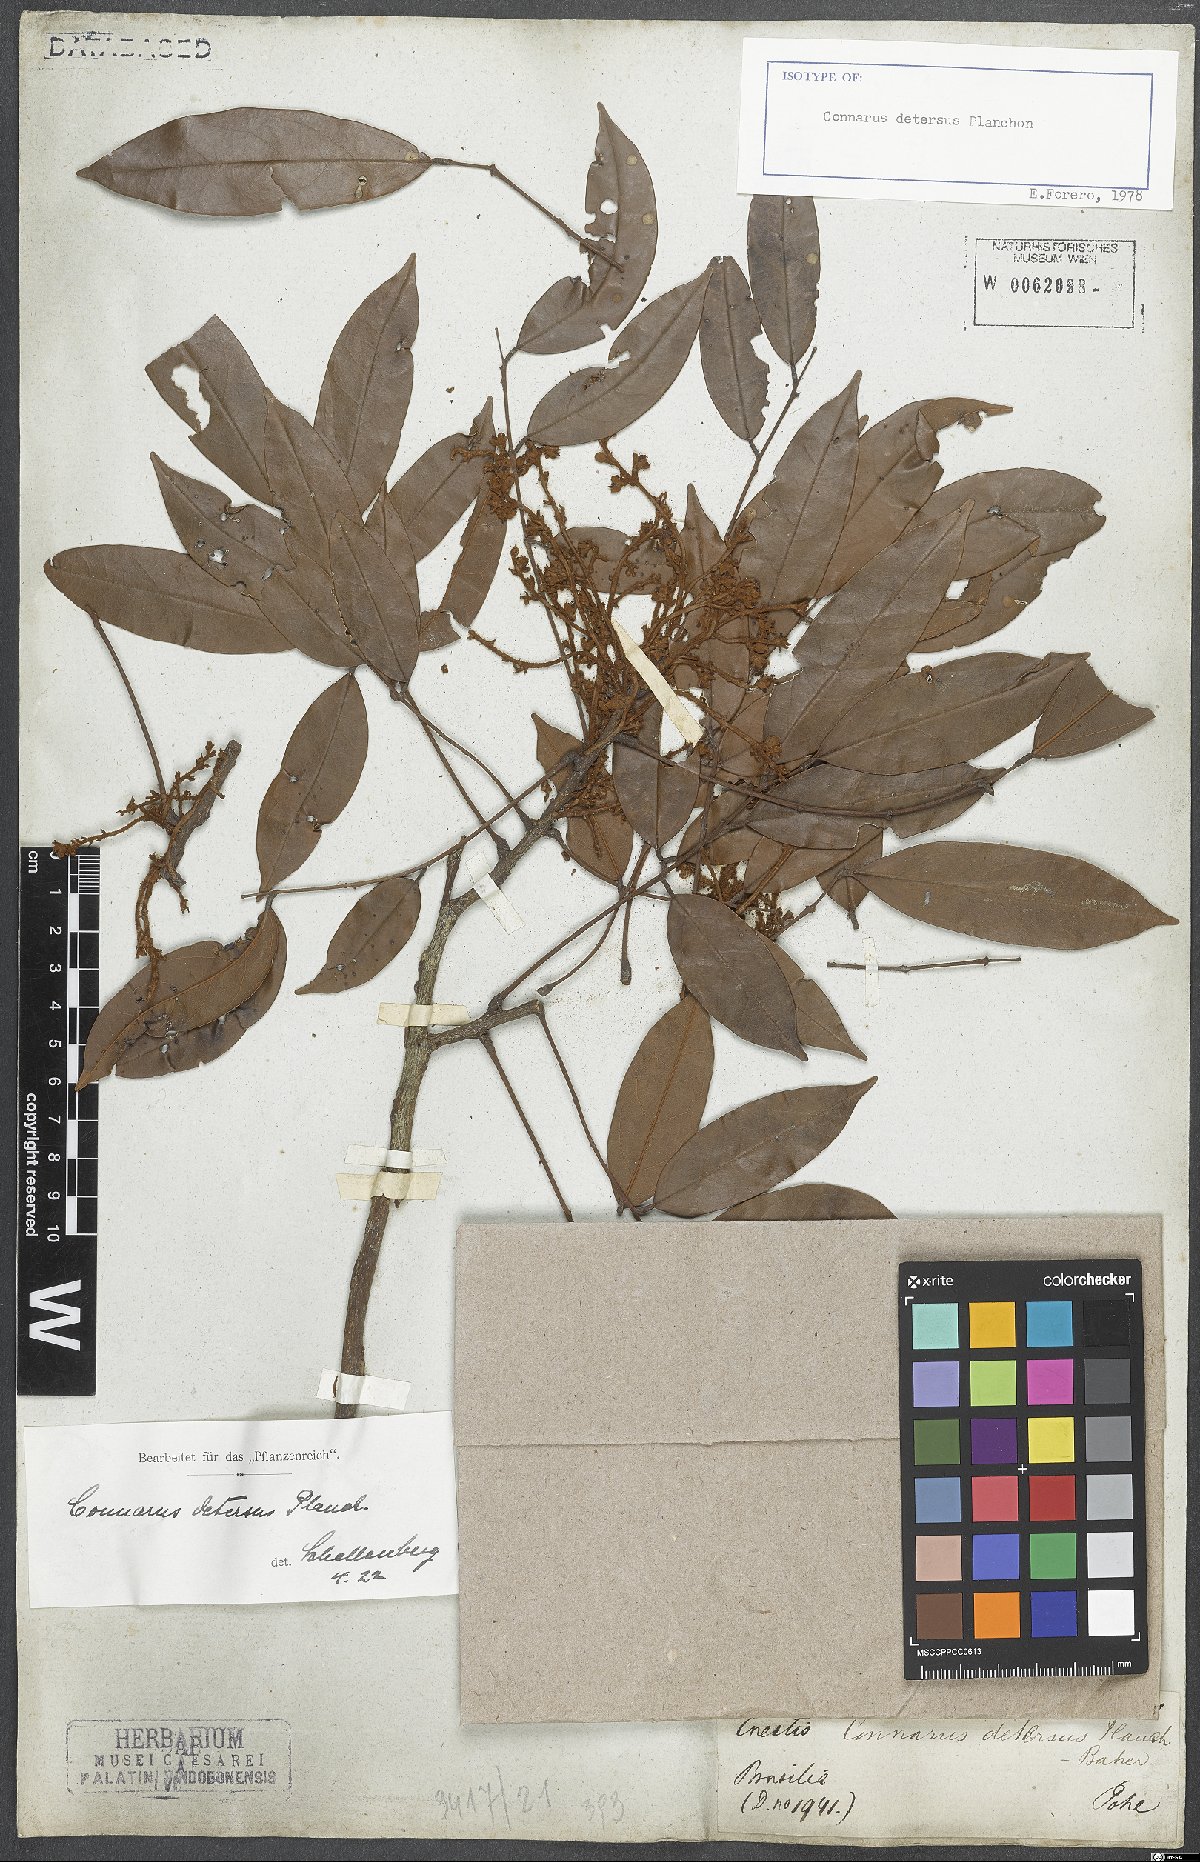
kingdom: Plantae
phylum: Tracheophyta
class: Magnoliopsida
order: Oxalidales
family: Connaraceae
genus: Connarus
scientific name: Connarus detersus
